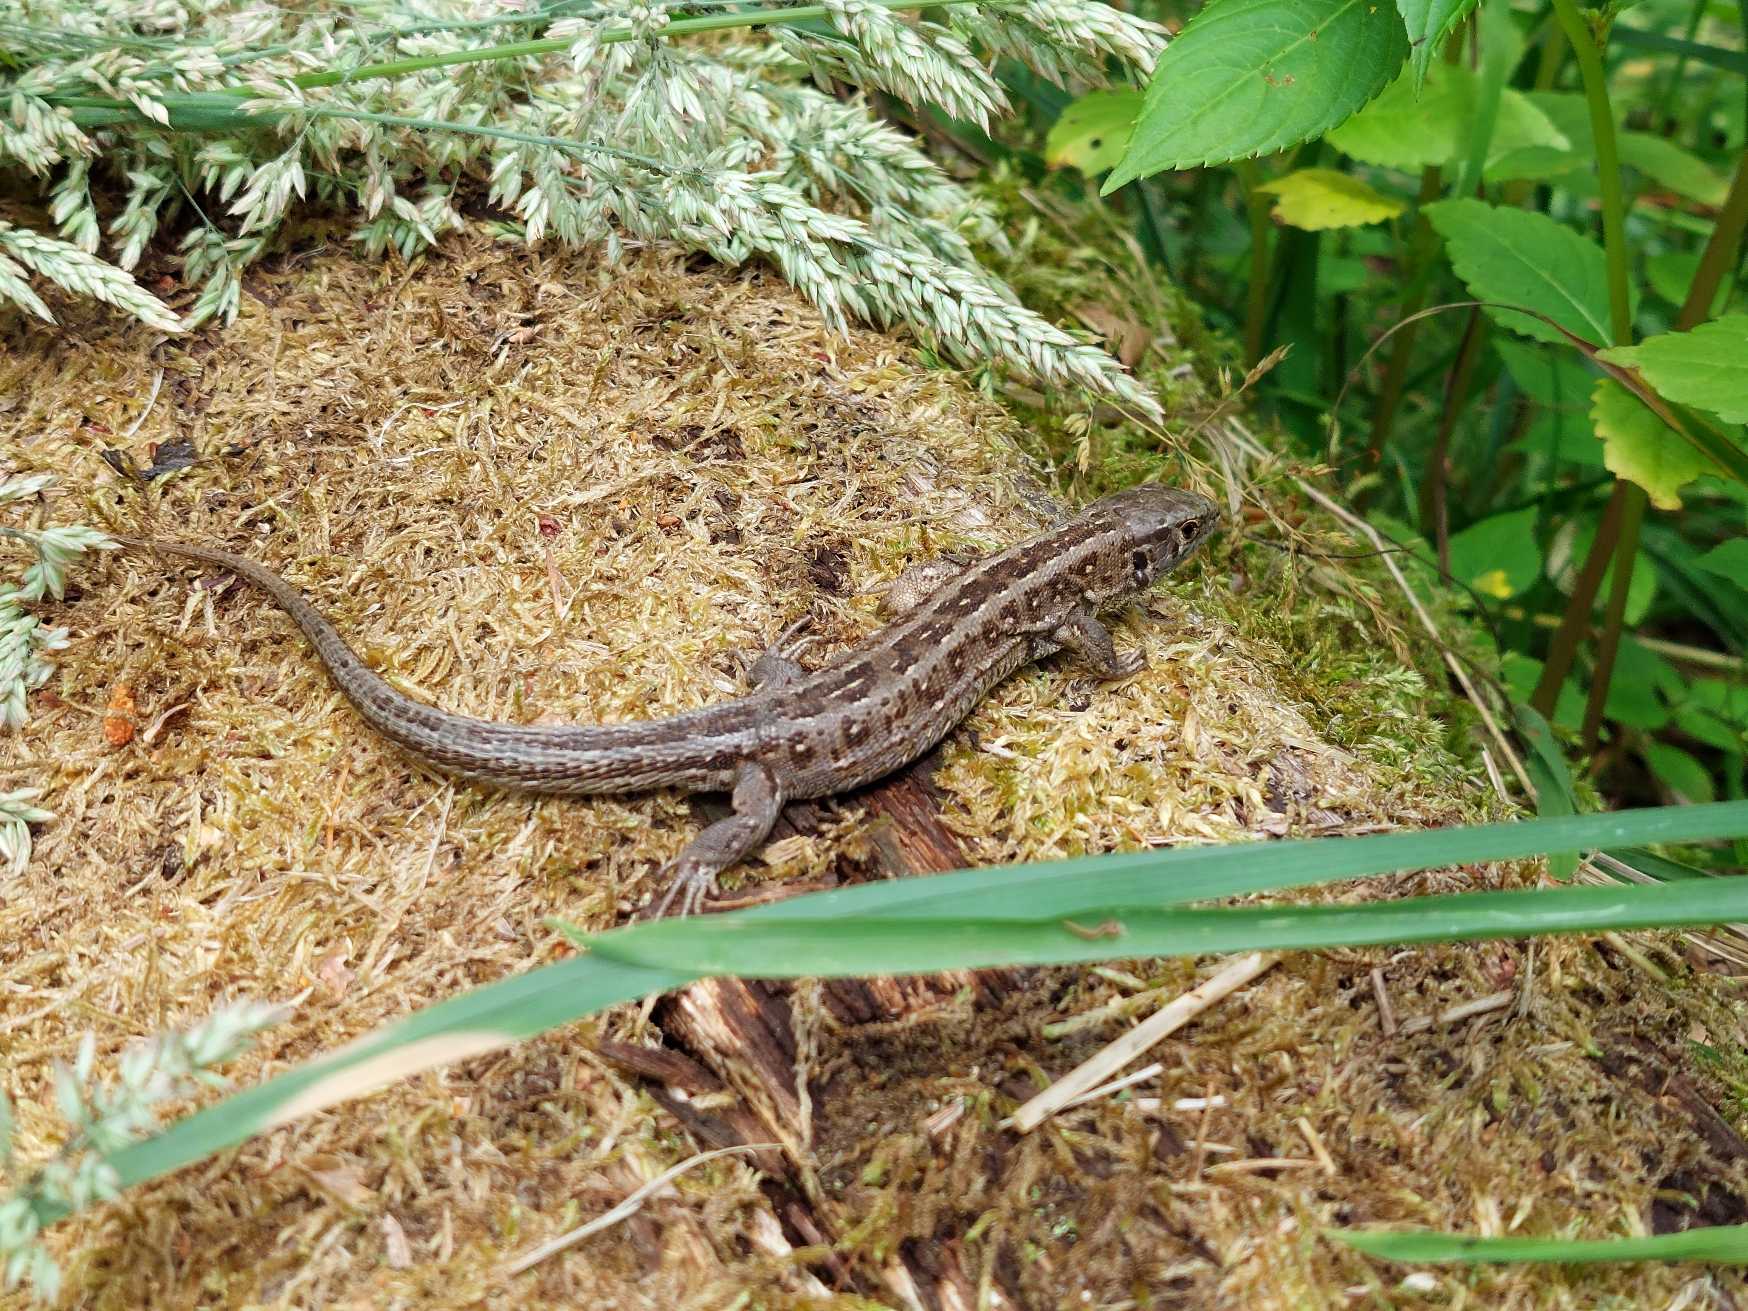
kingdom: Animalia
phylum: Chordata
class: Squamata
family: Lacertidae
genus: Lacerta
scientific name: Lacerta agilis
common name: Markfirben
